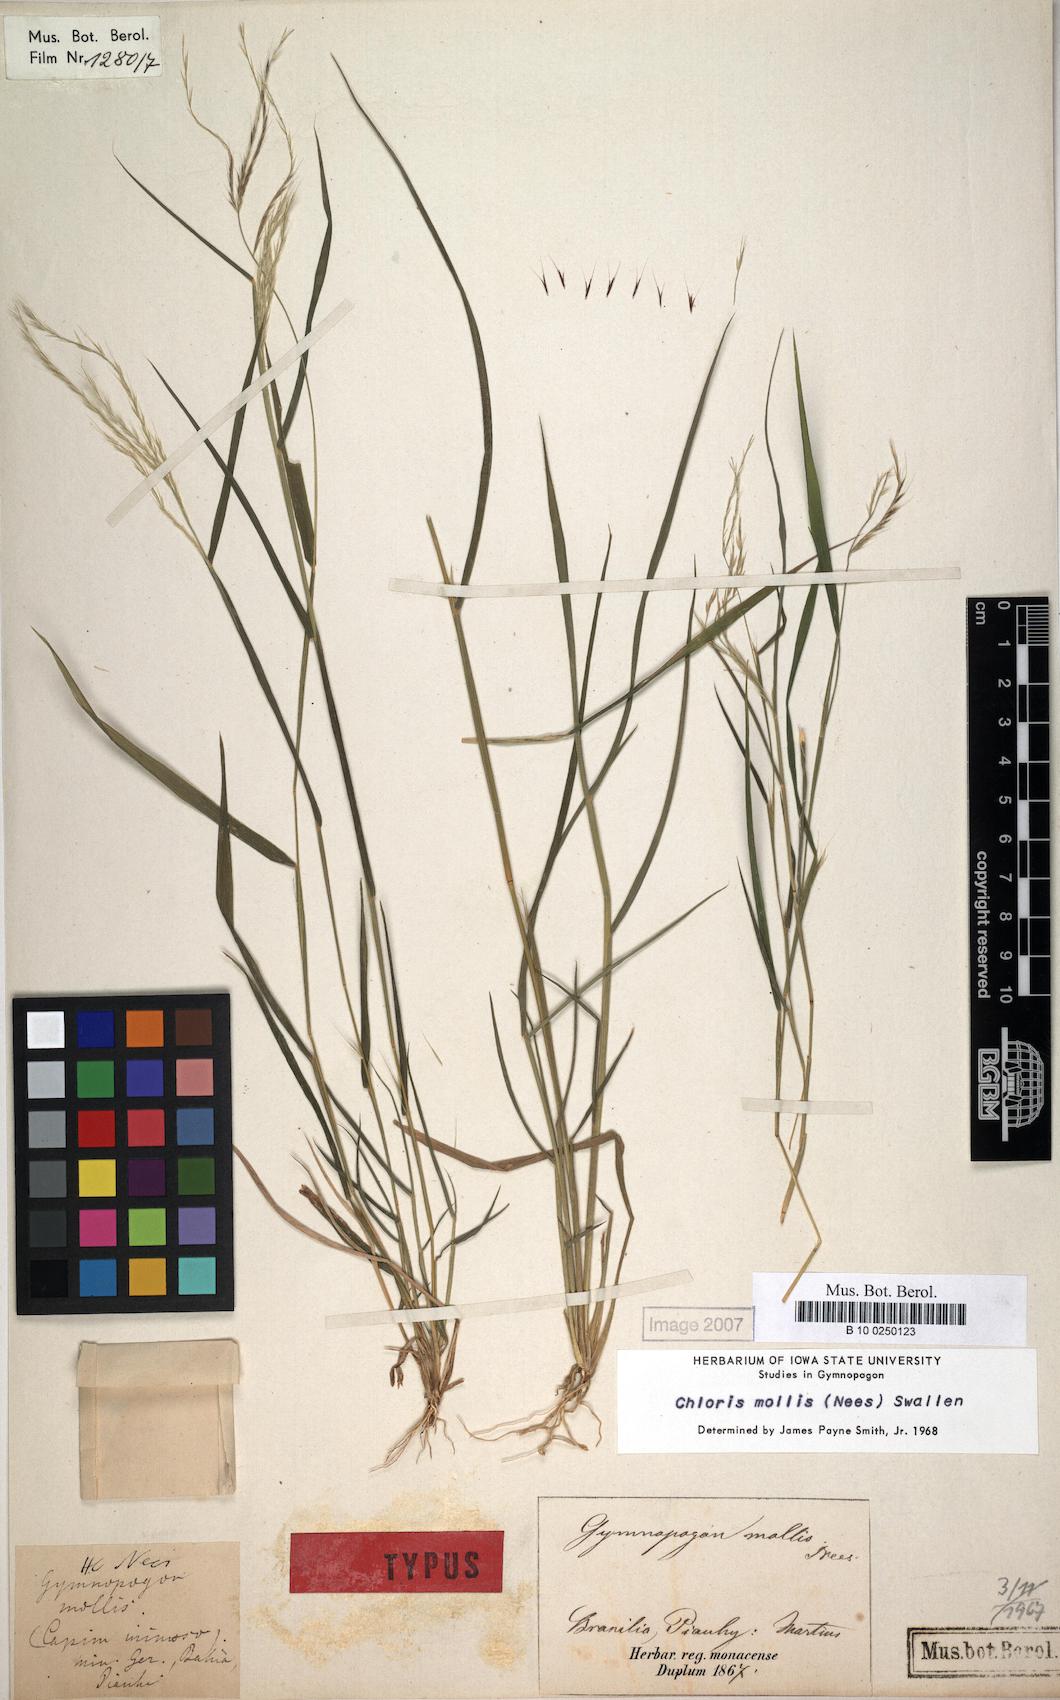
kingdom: Plantae
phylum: Tracheophyta
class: Liliopsida
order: Poales
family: Poaceae
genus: Leptochloa
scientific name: Leptochloa anisopoda
